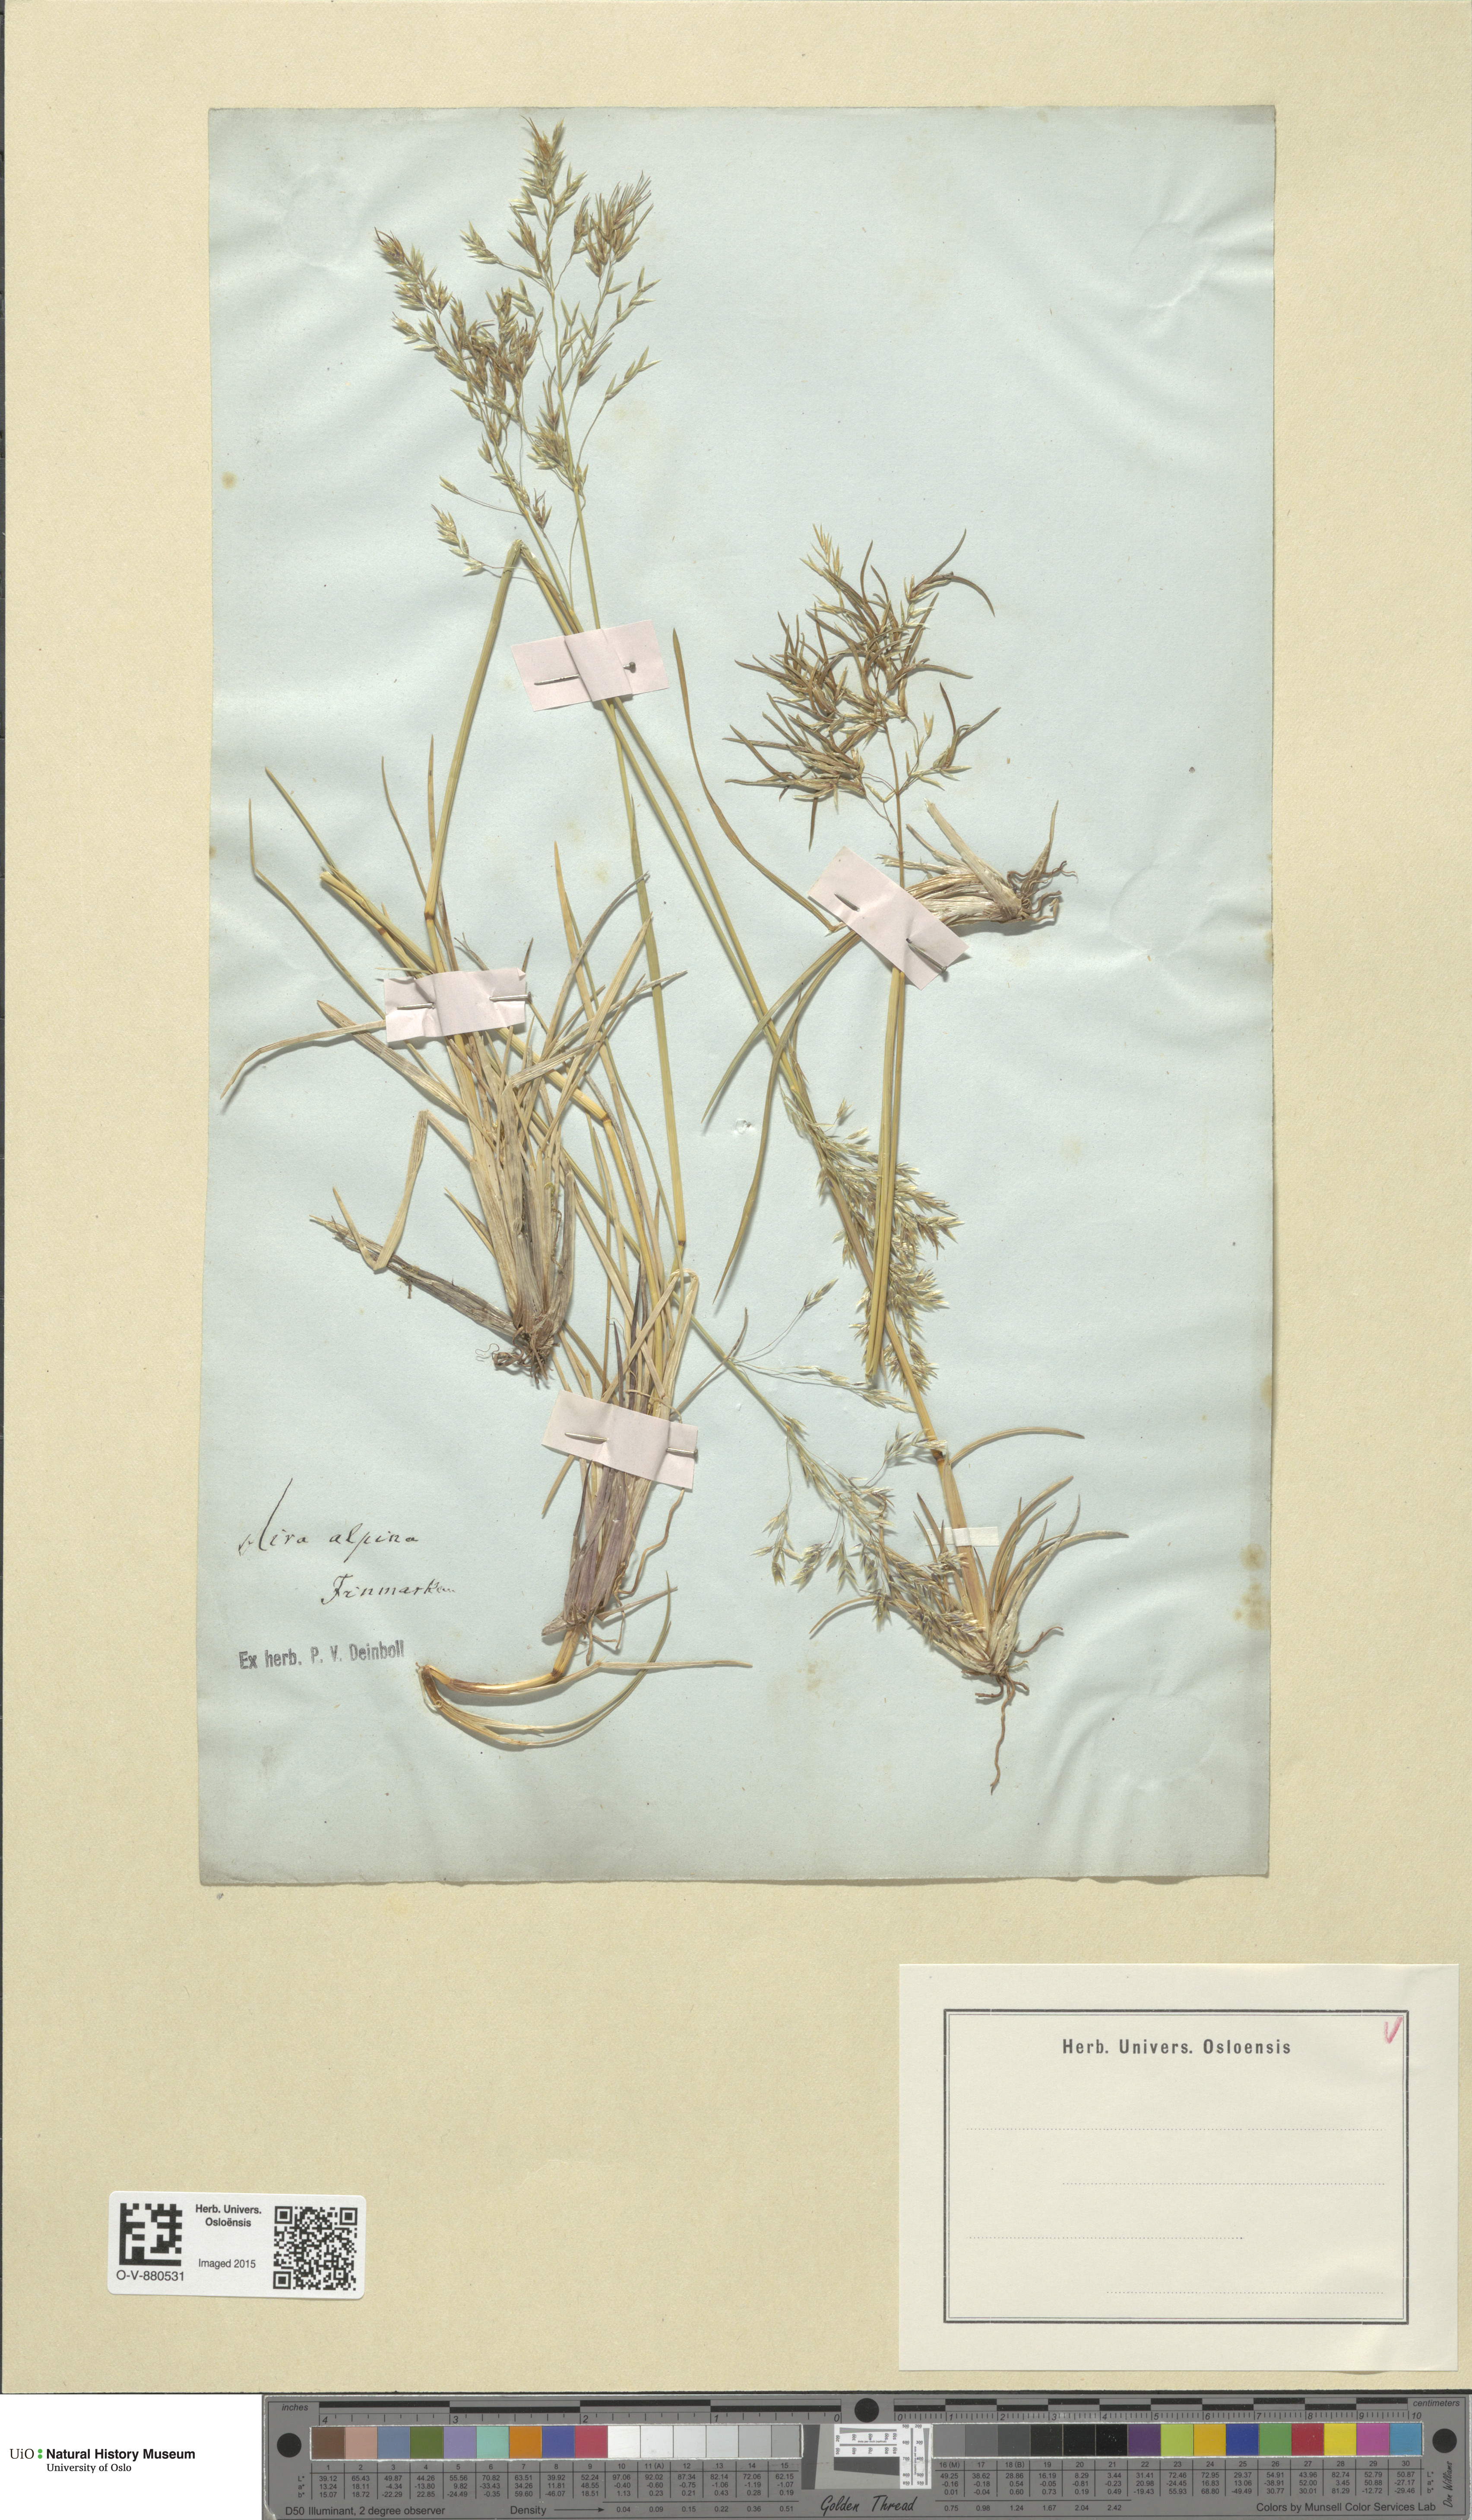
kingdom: Plantae
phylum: Tracheophyta
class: Liliopsida
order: Poales
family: Poaceae
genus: Deschampsia
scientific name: Deschampsia cespitosa
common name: Tufted hair-grass
